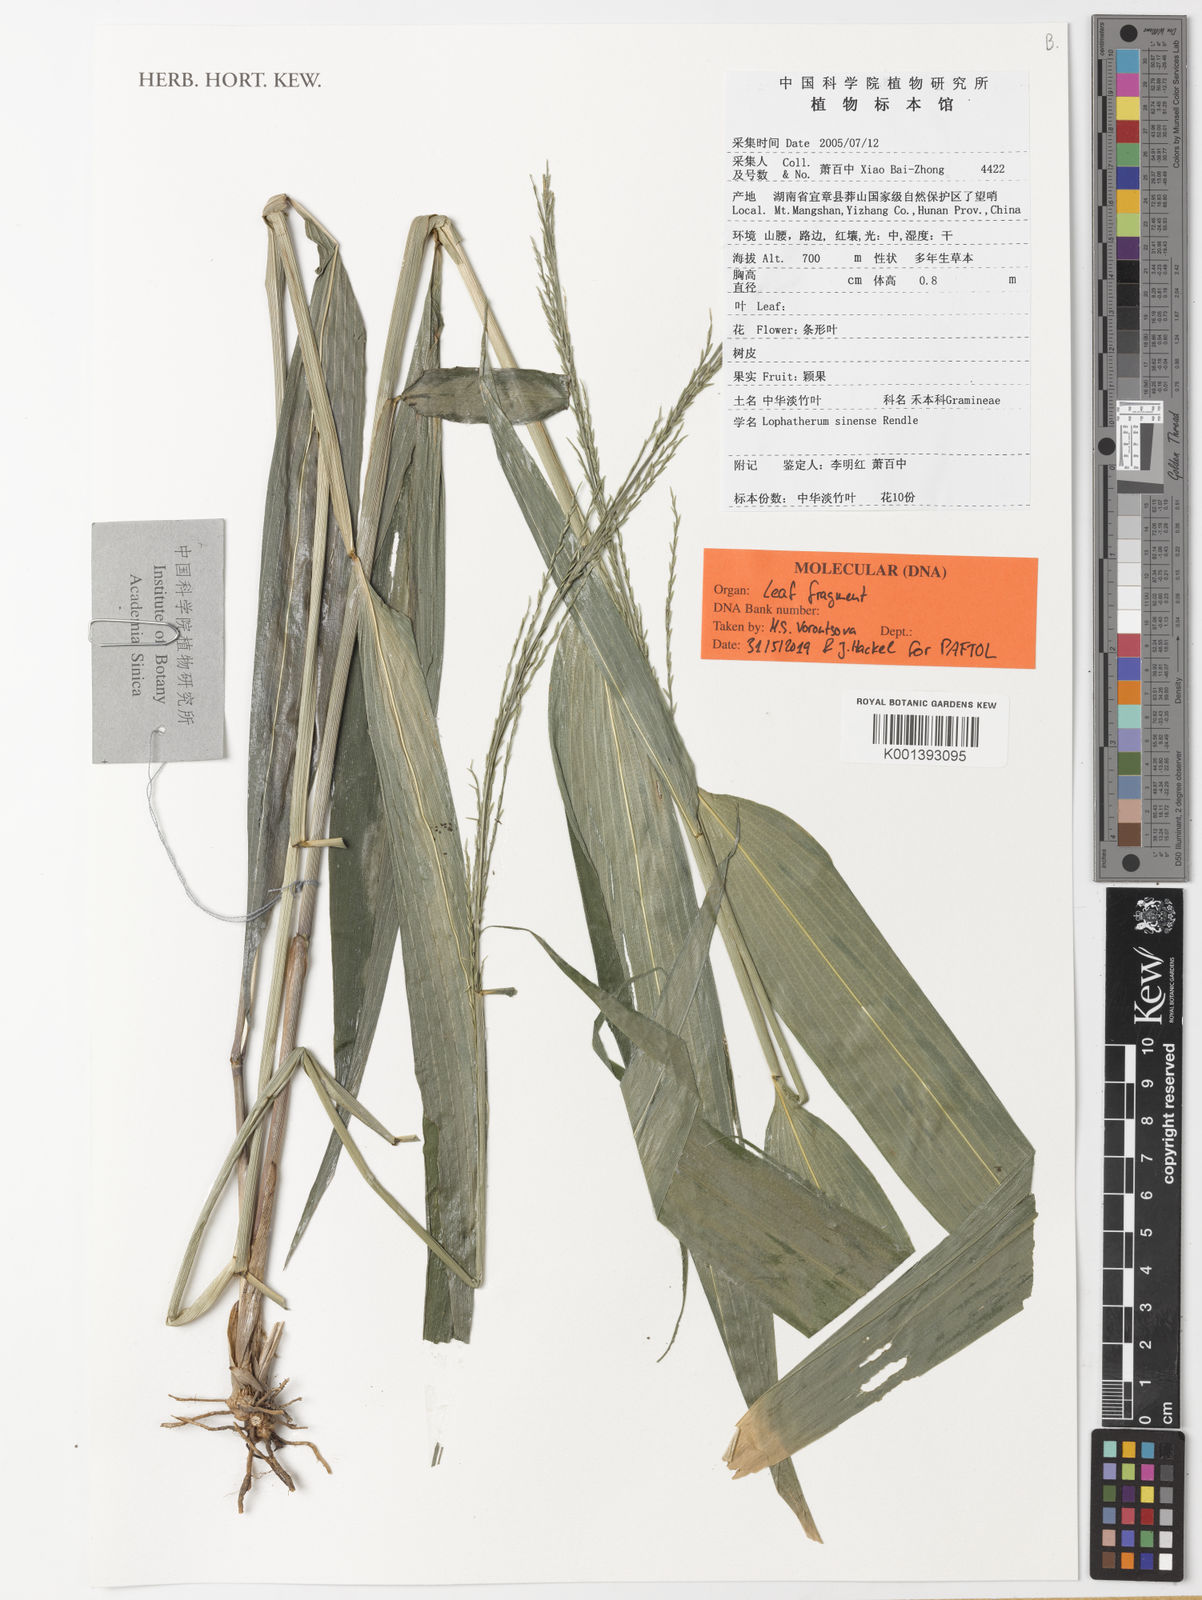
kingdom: Plantae
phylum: Tracheophyta
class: Liliopsida
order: Poales
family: Poaceae
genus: Lophatherum
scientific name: Lophatherum sinense
